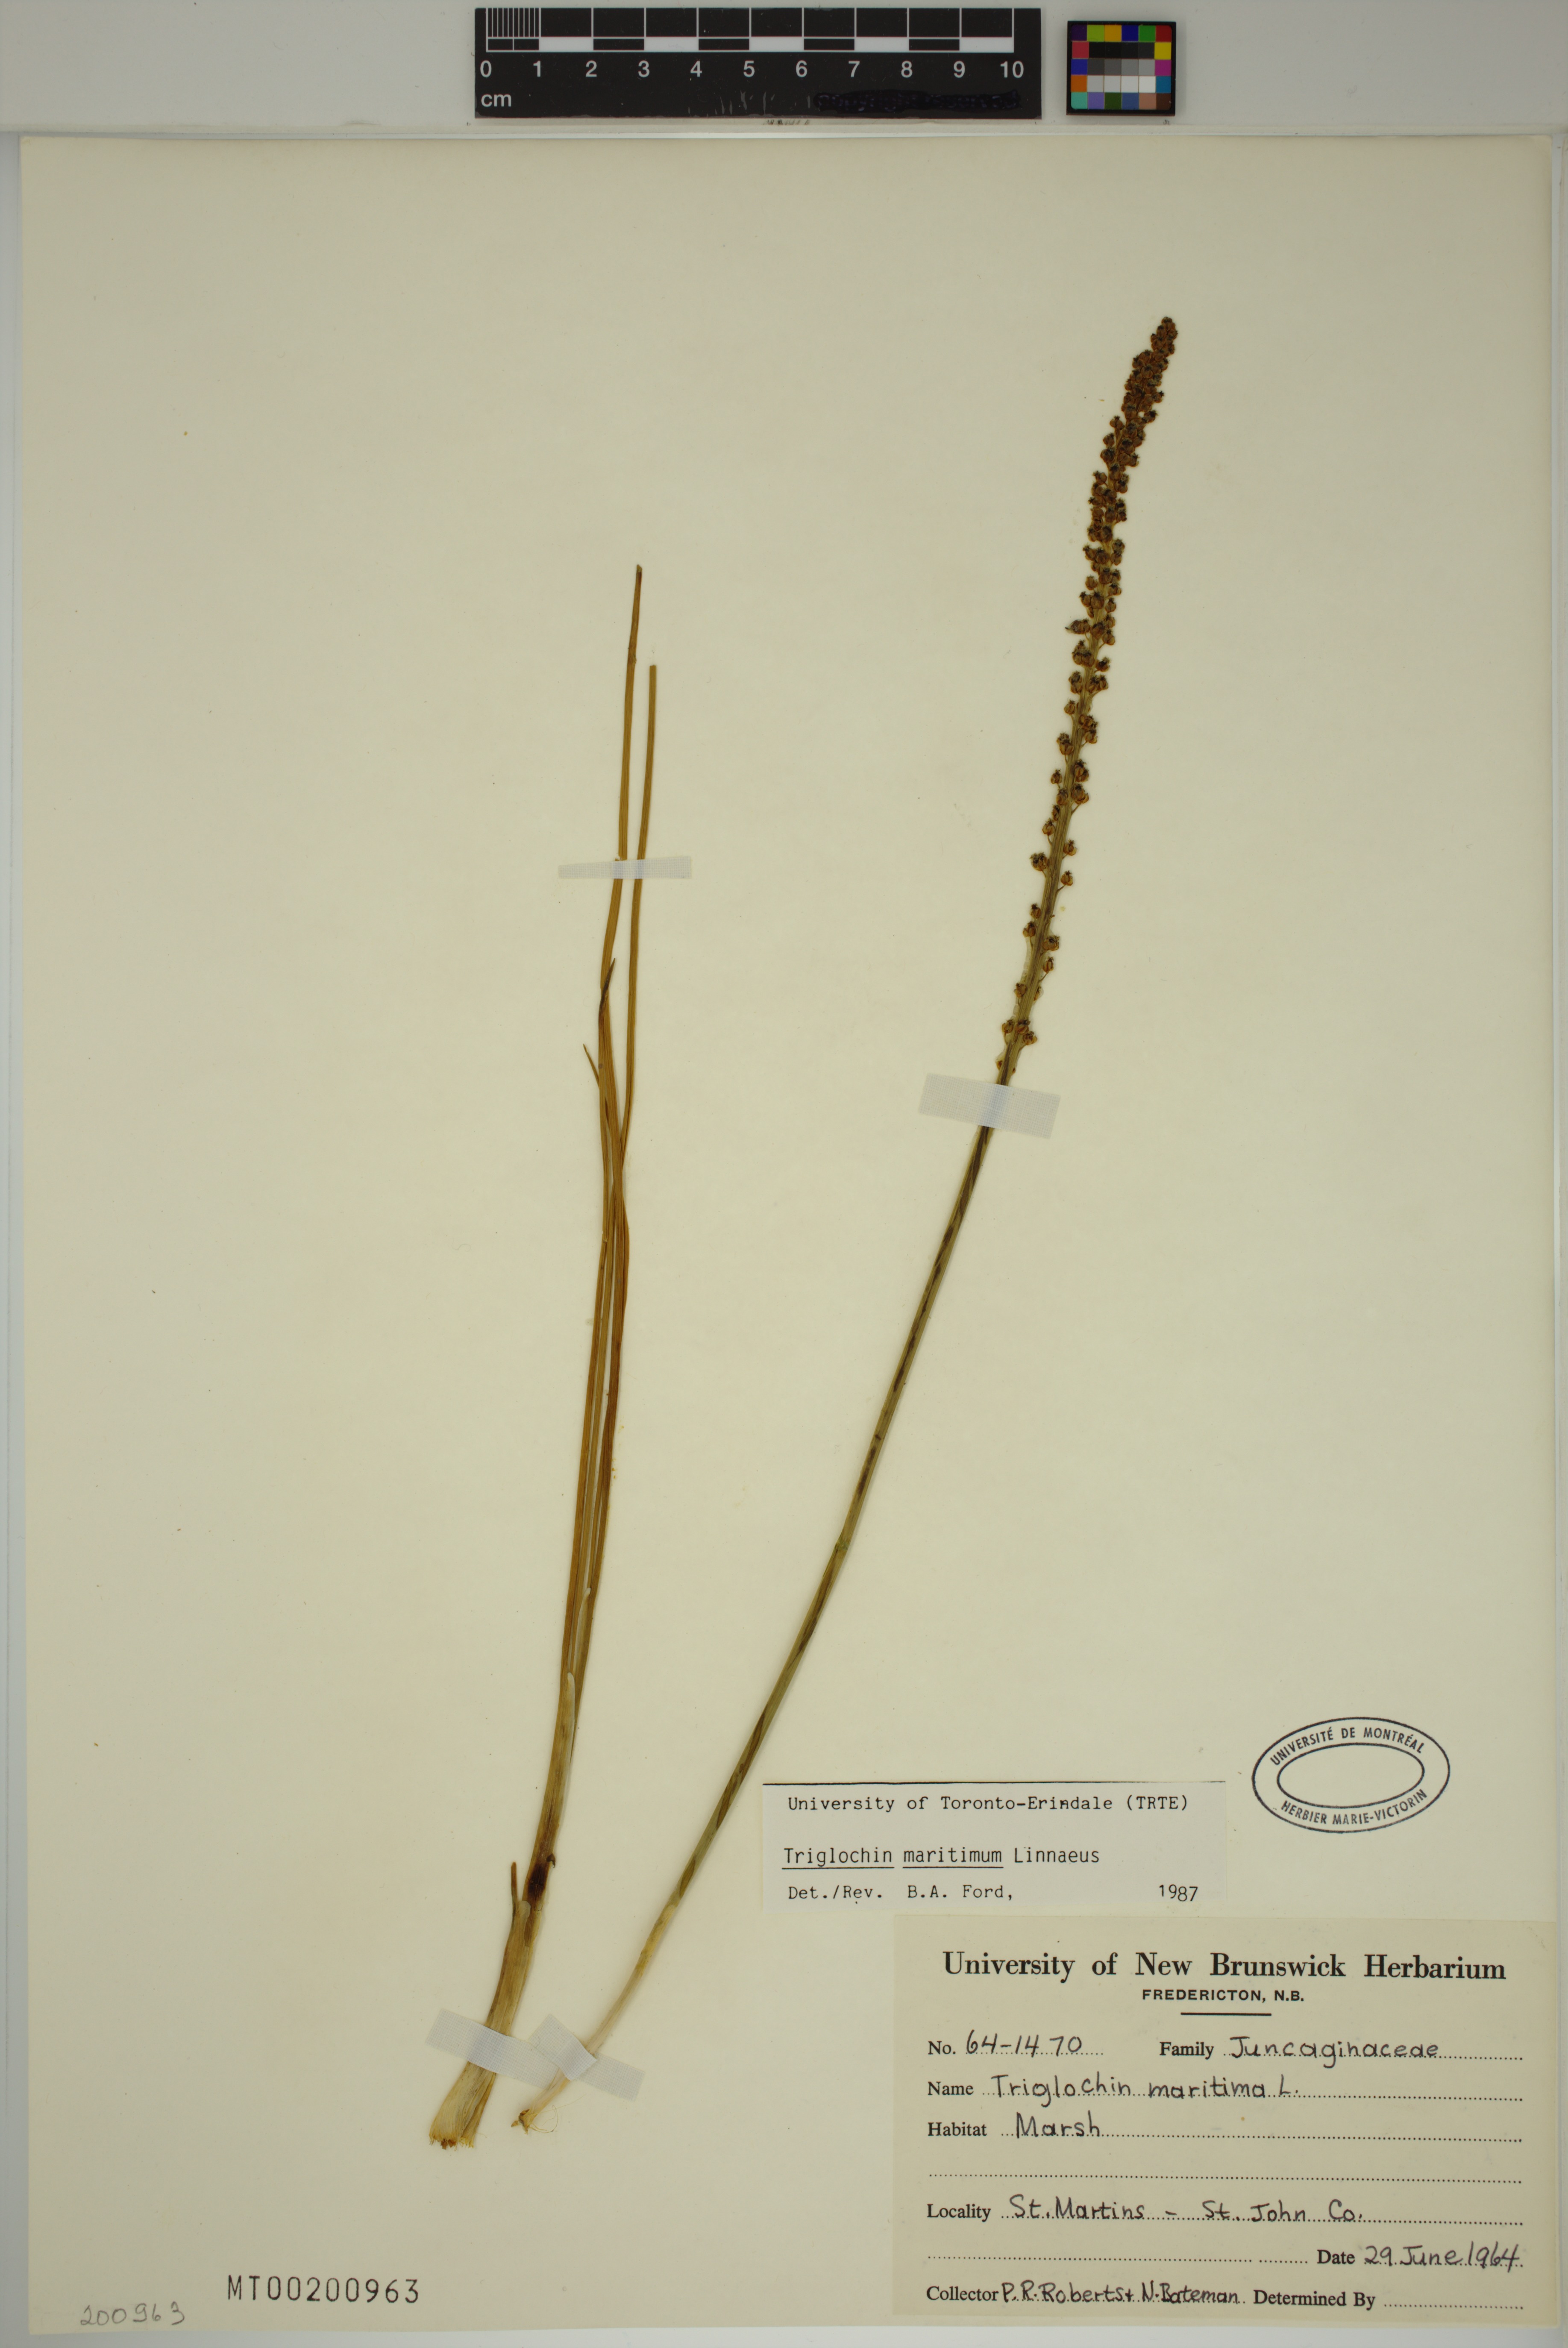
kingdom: Plantae
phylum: Tracheophyta
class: Liliopsida
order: Alismatales
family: Juncaginaceae
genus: Triglochin
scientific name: Triglochin maritima
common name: Sea arrowgrass
